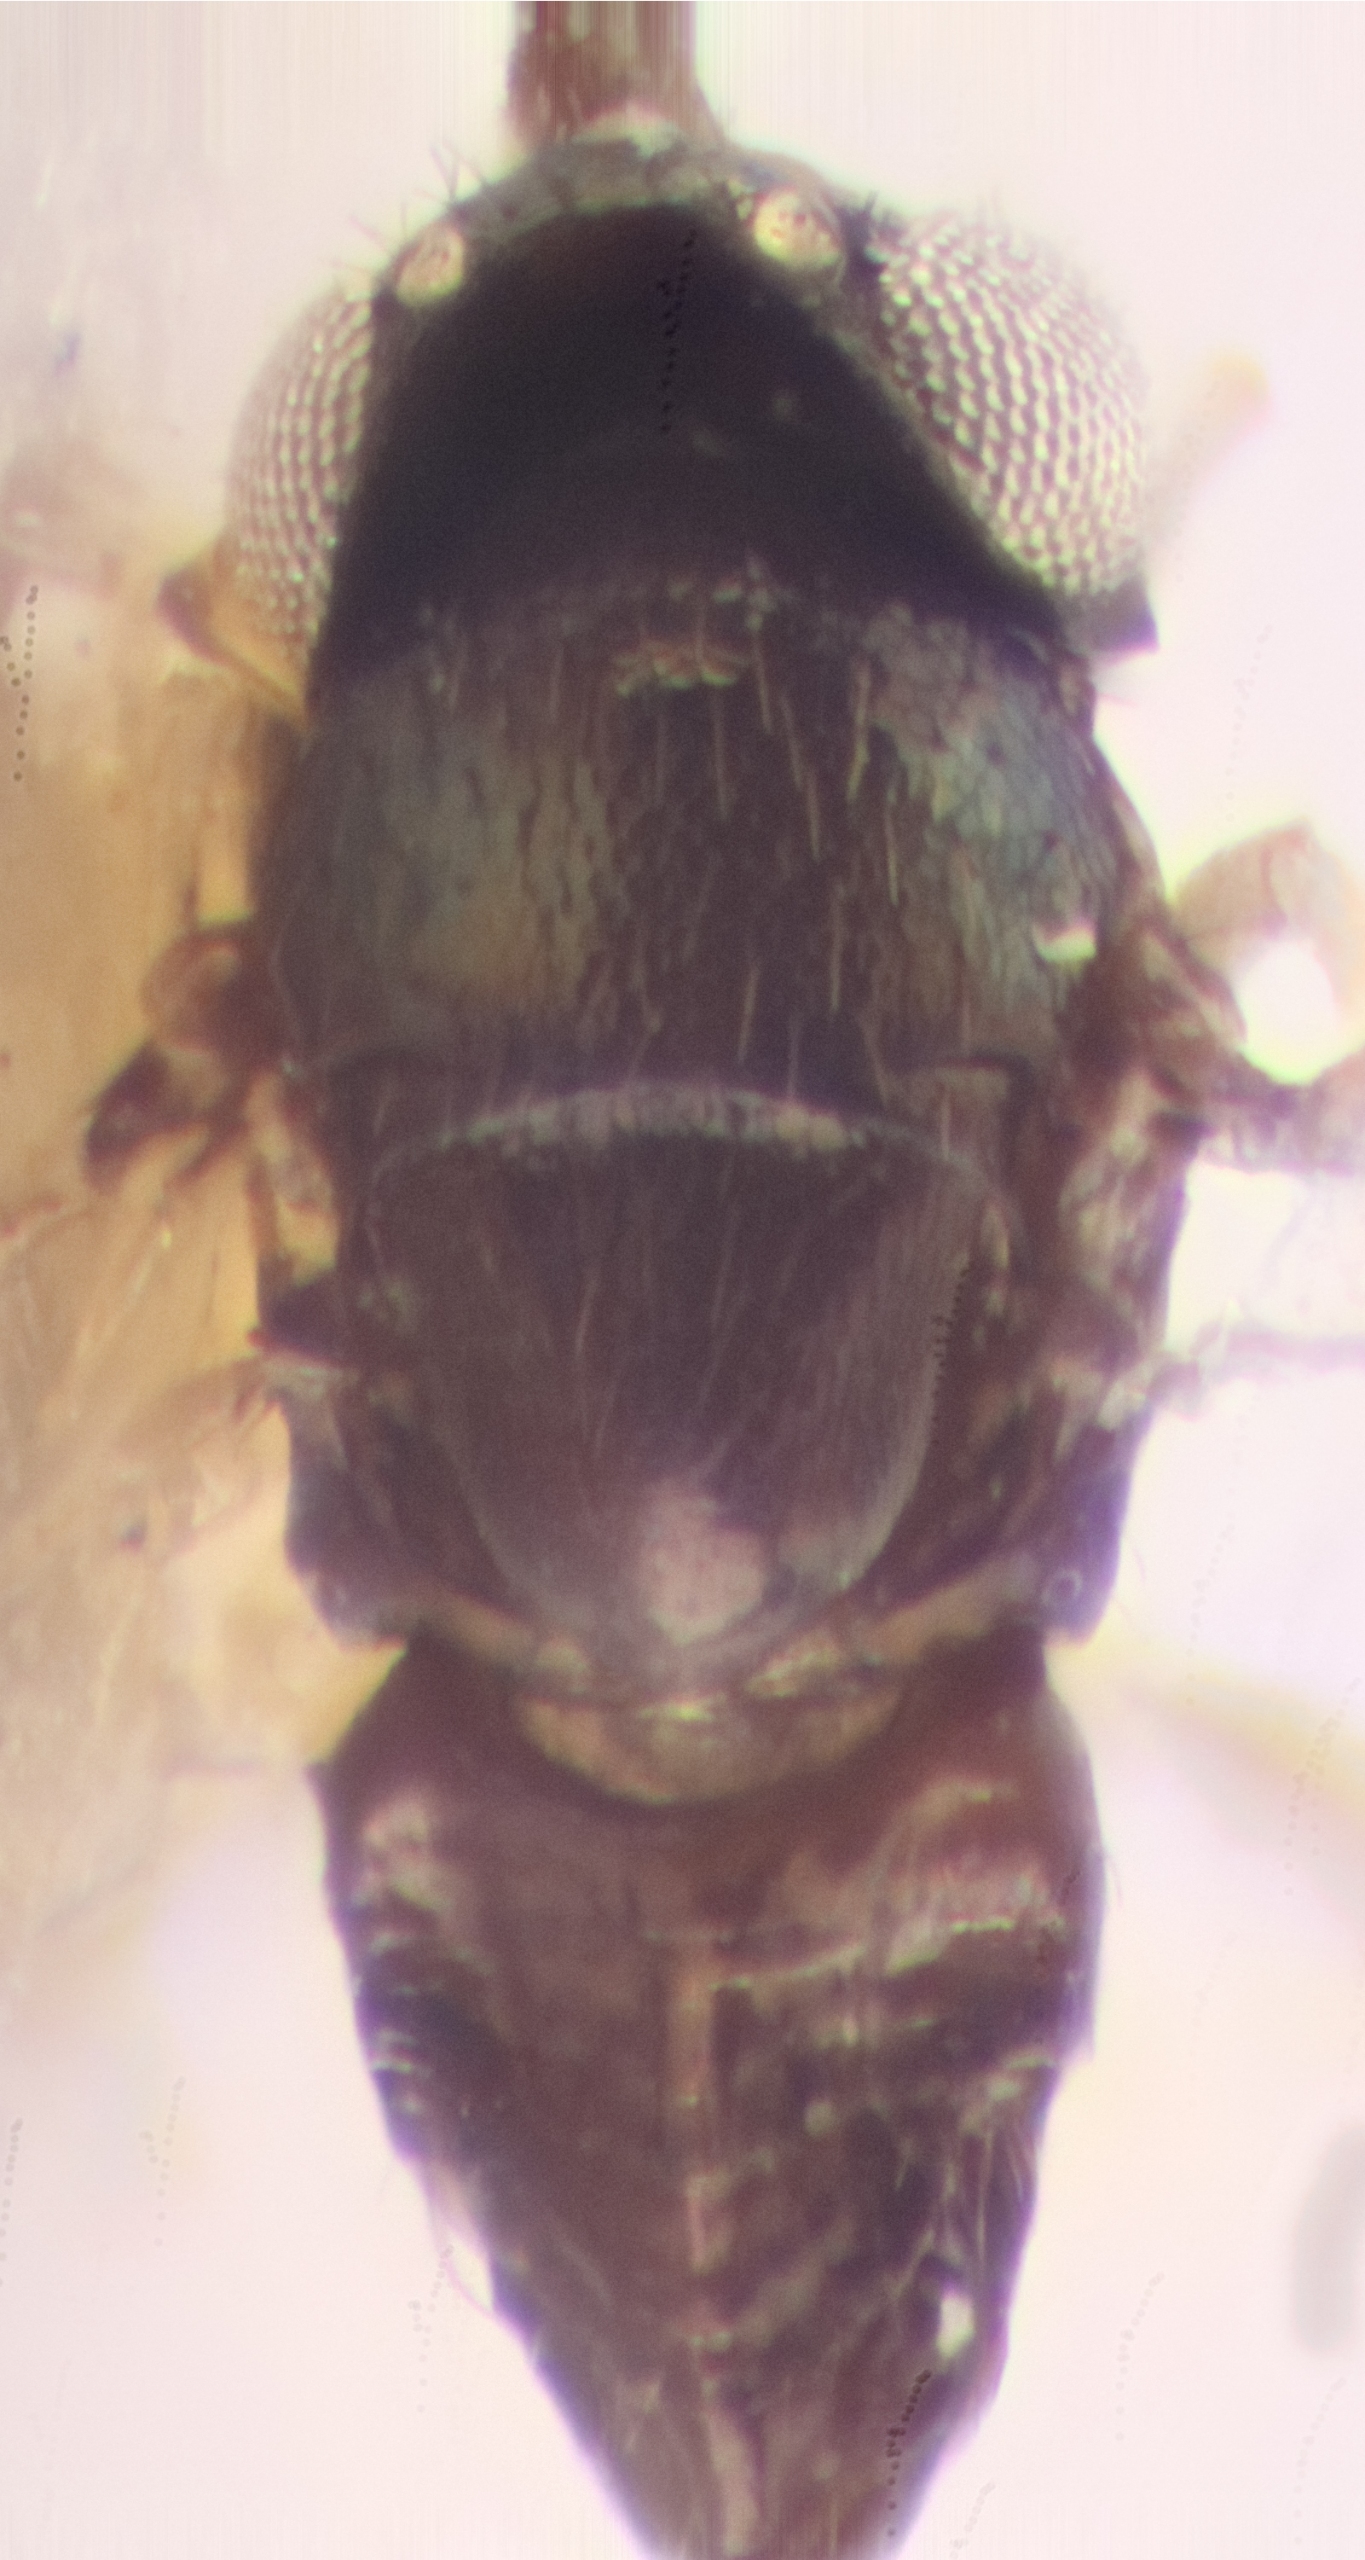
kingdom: Animalia
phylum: Arthropoda
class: Insecta
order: Hymenoptera
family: Encyrtidae
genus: Copidosoma
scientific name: Copidosoma thebe
